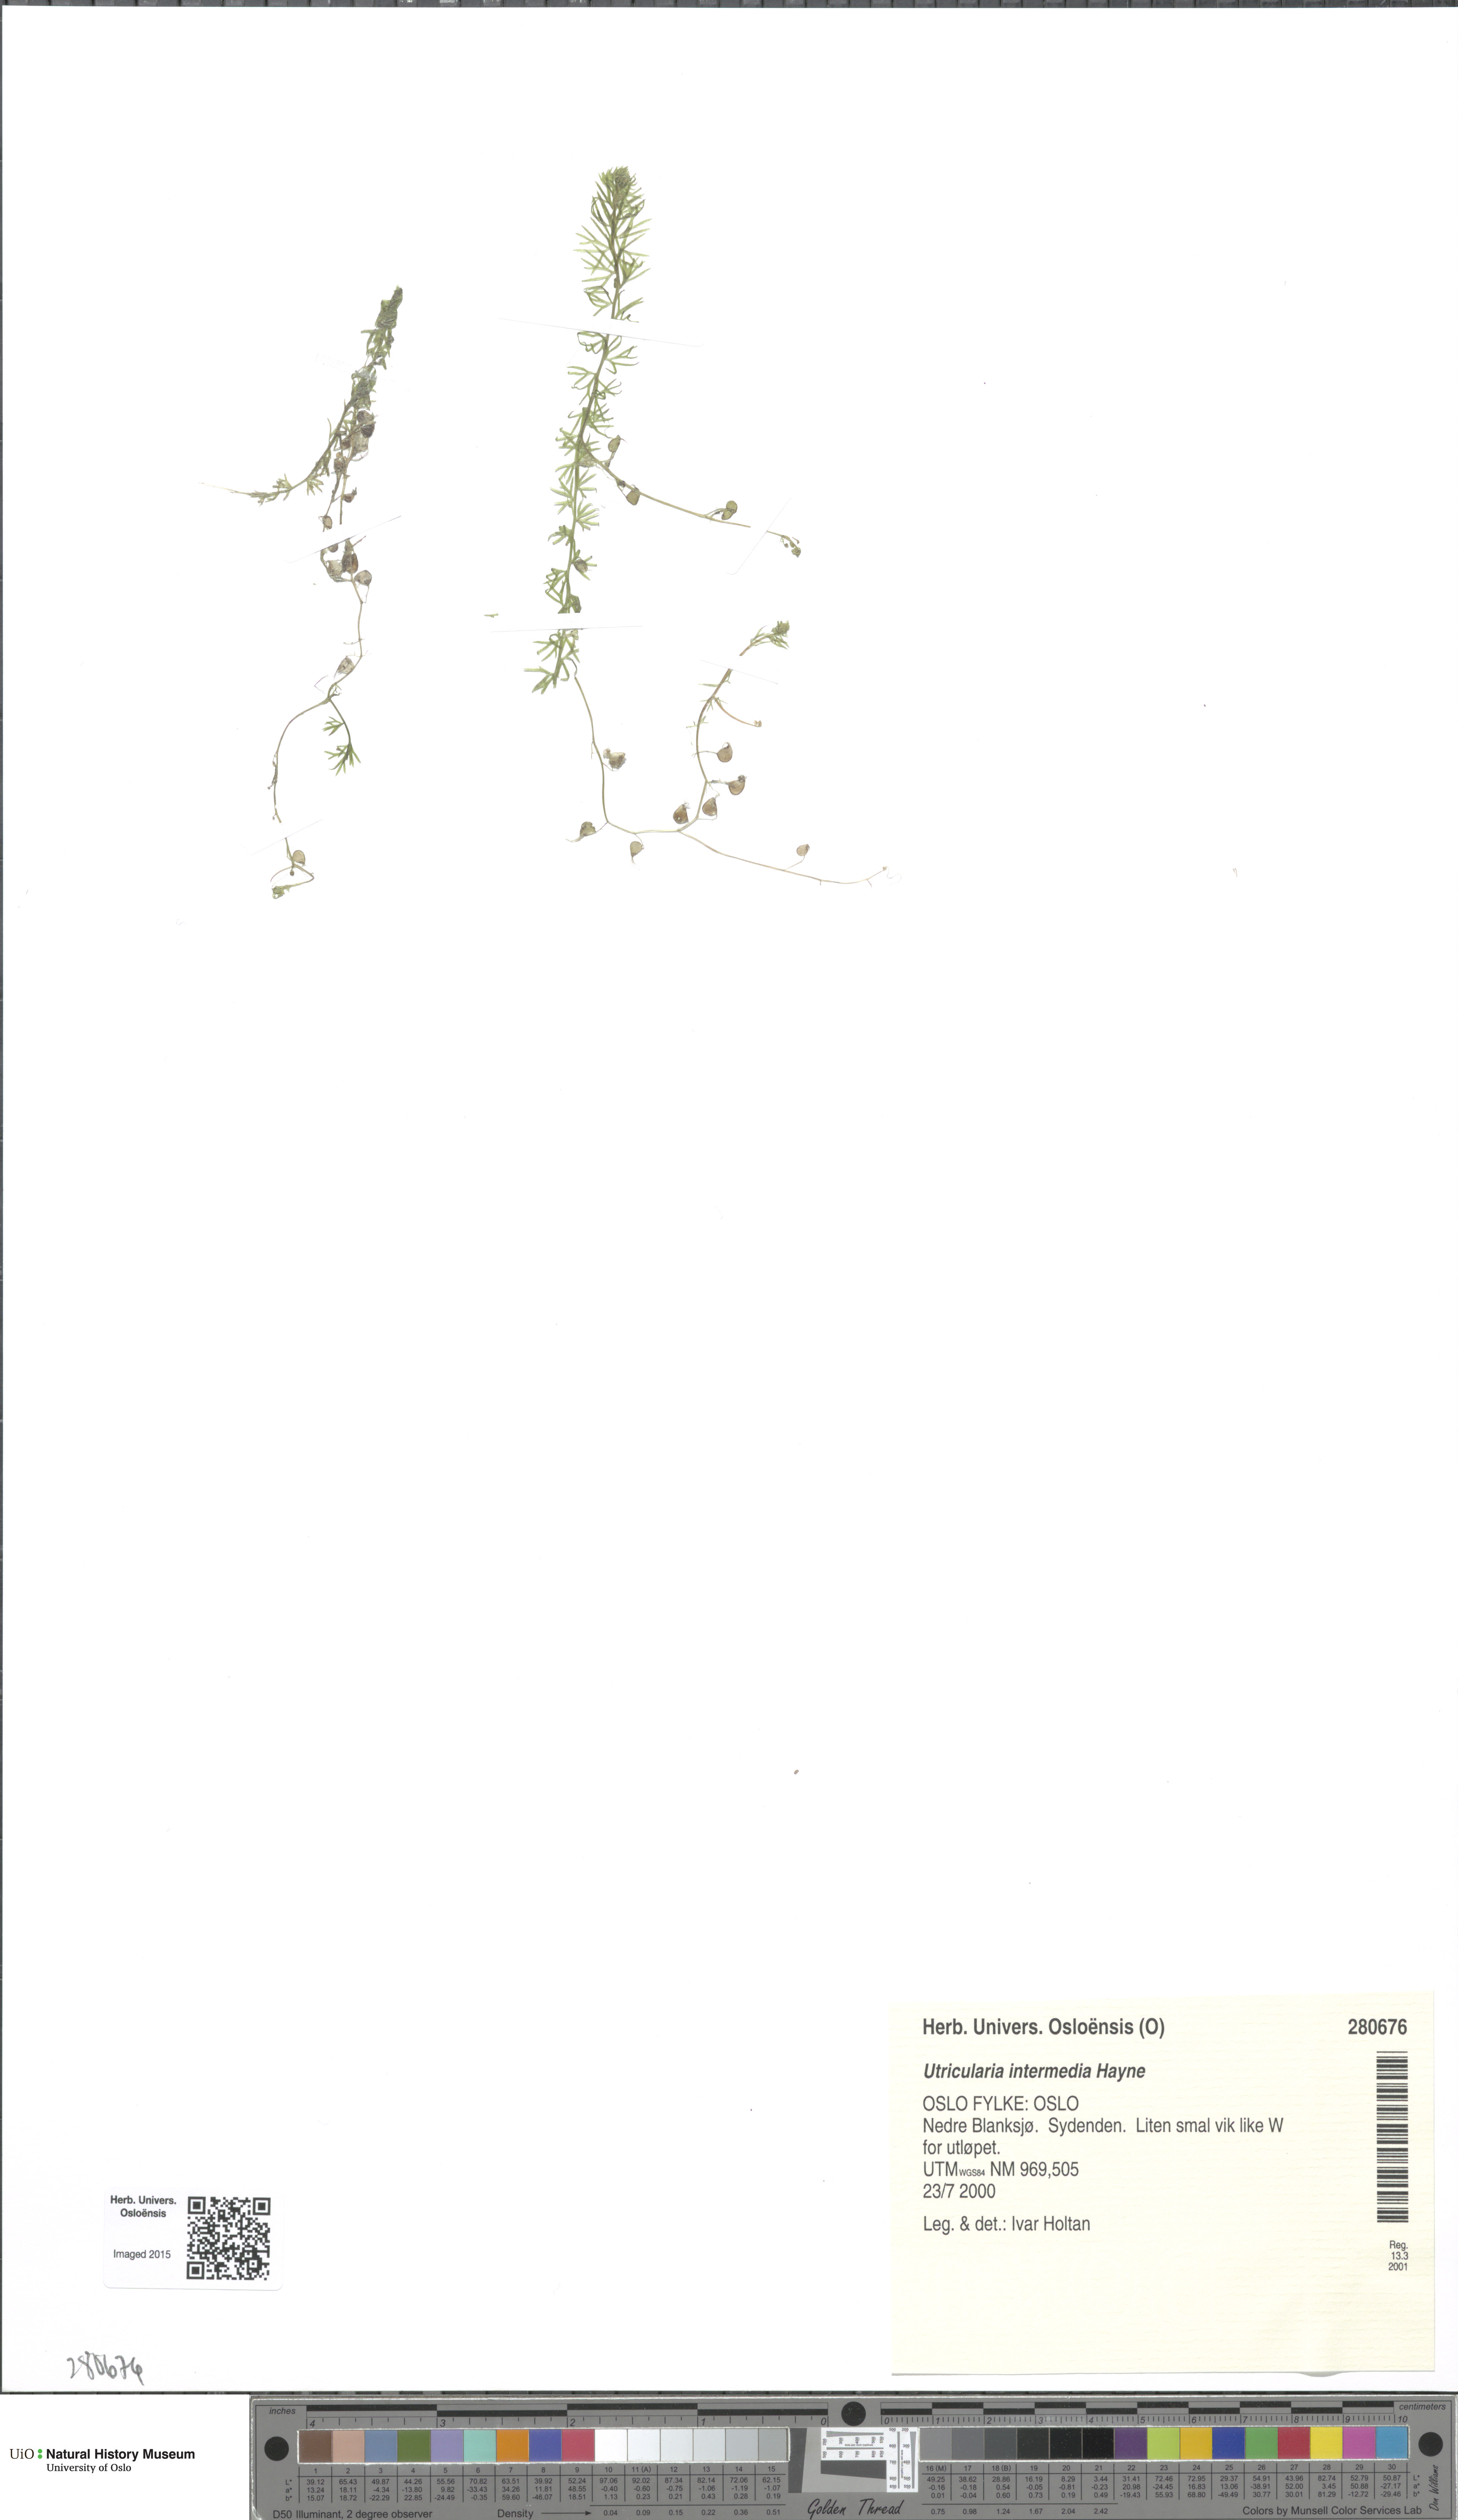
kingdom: Plantae
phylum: Tracheophyta
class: Magnoliopsida
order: Lamiales
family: Lentibulariaceae
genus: Utricularia
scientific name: Utricularia intermedia
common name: Intermediate bladderwort
